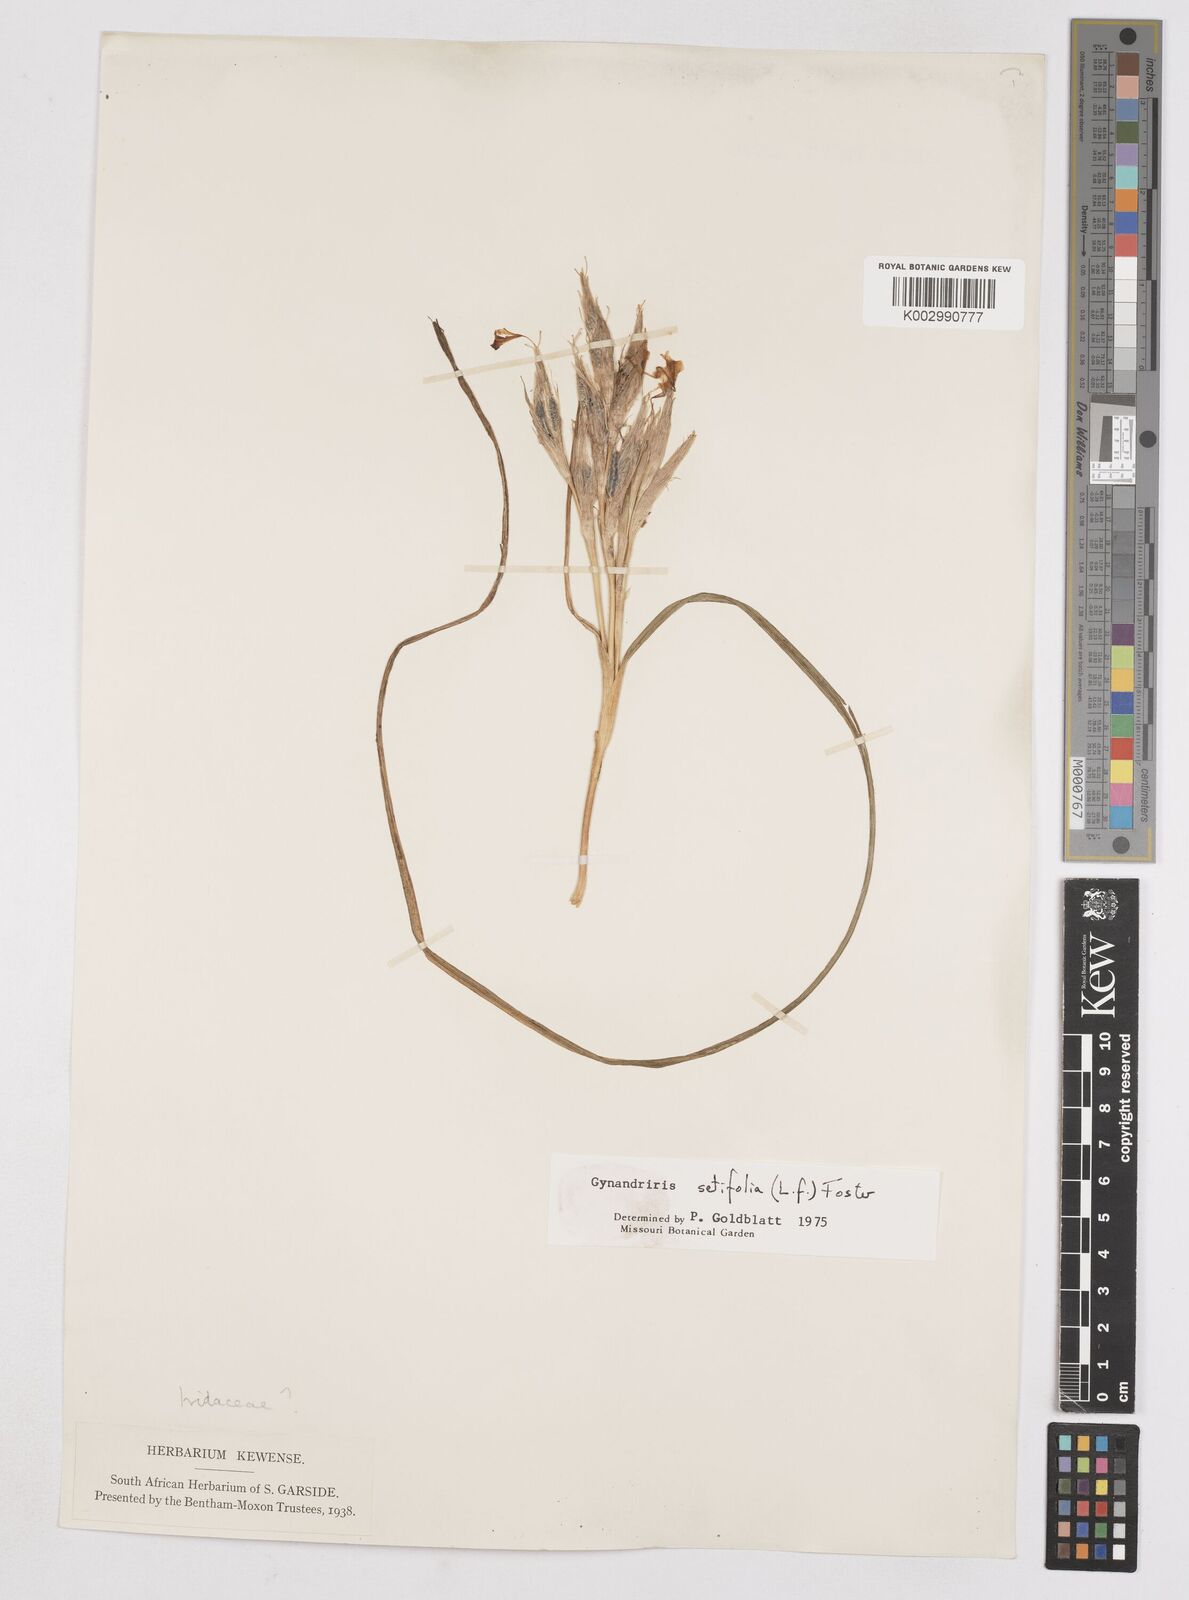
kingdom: Plantae
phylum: Tracheophyta
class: Liliopsida
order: Asparagales
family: Iridaceae
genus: Moraea
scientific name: Moraea setifolia
